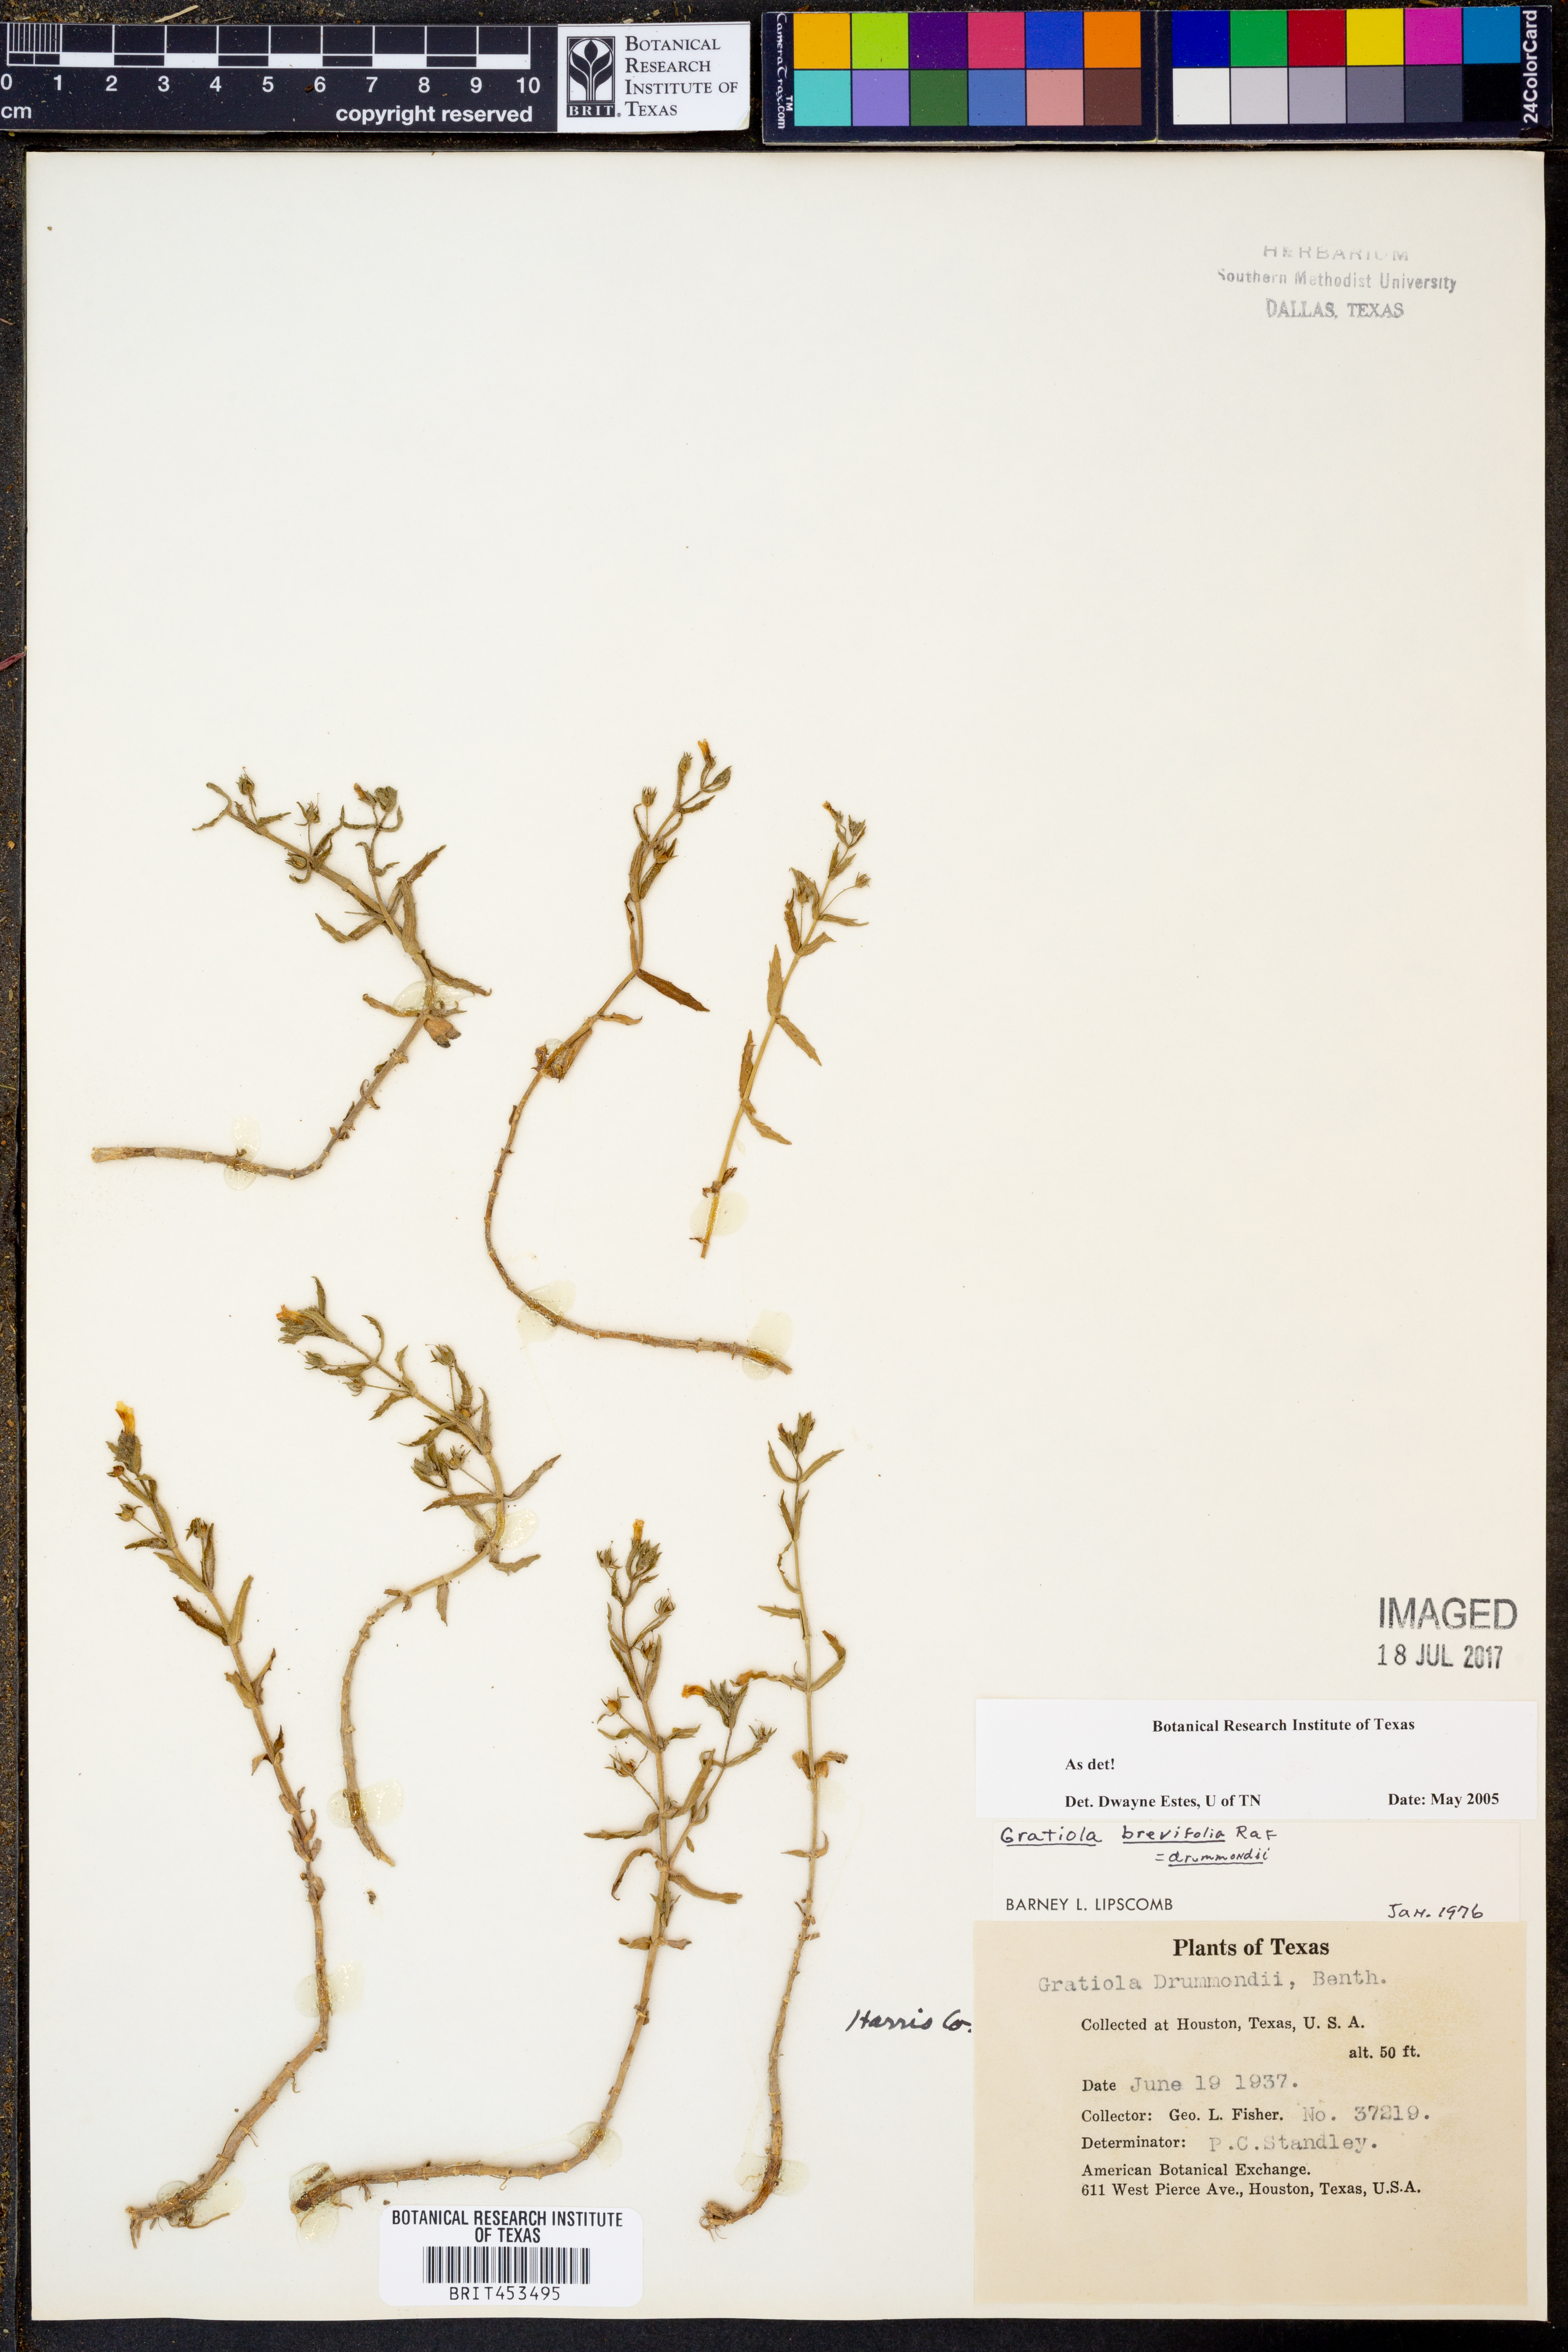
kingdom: Plantae
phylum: Tracheophyta
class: Magnoliopsida
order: Lamiales
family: Plantaginaceae
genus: Gratiola
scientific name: Gratiola brevifolia
